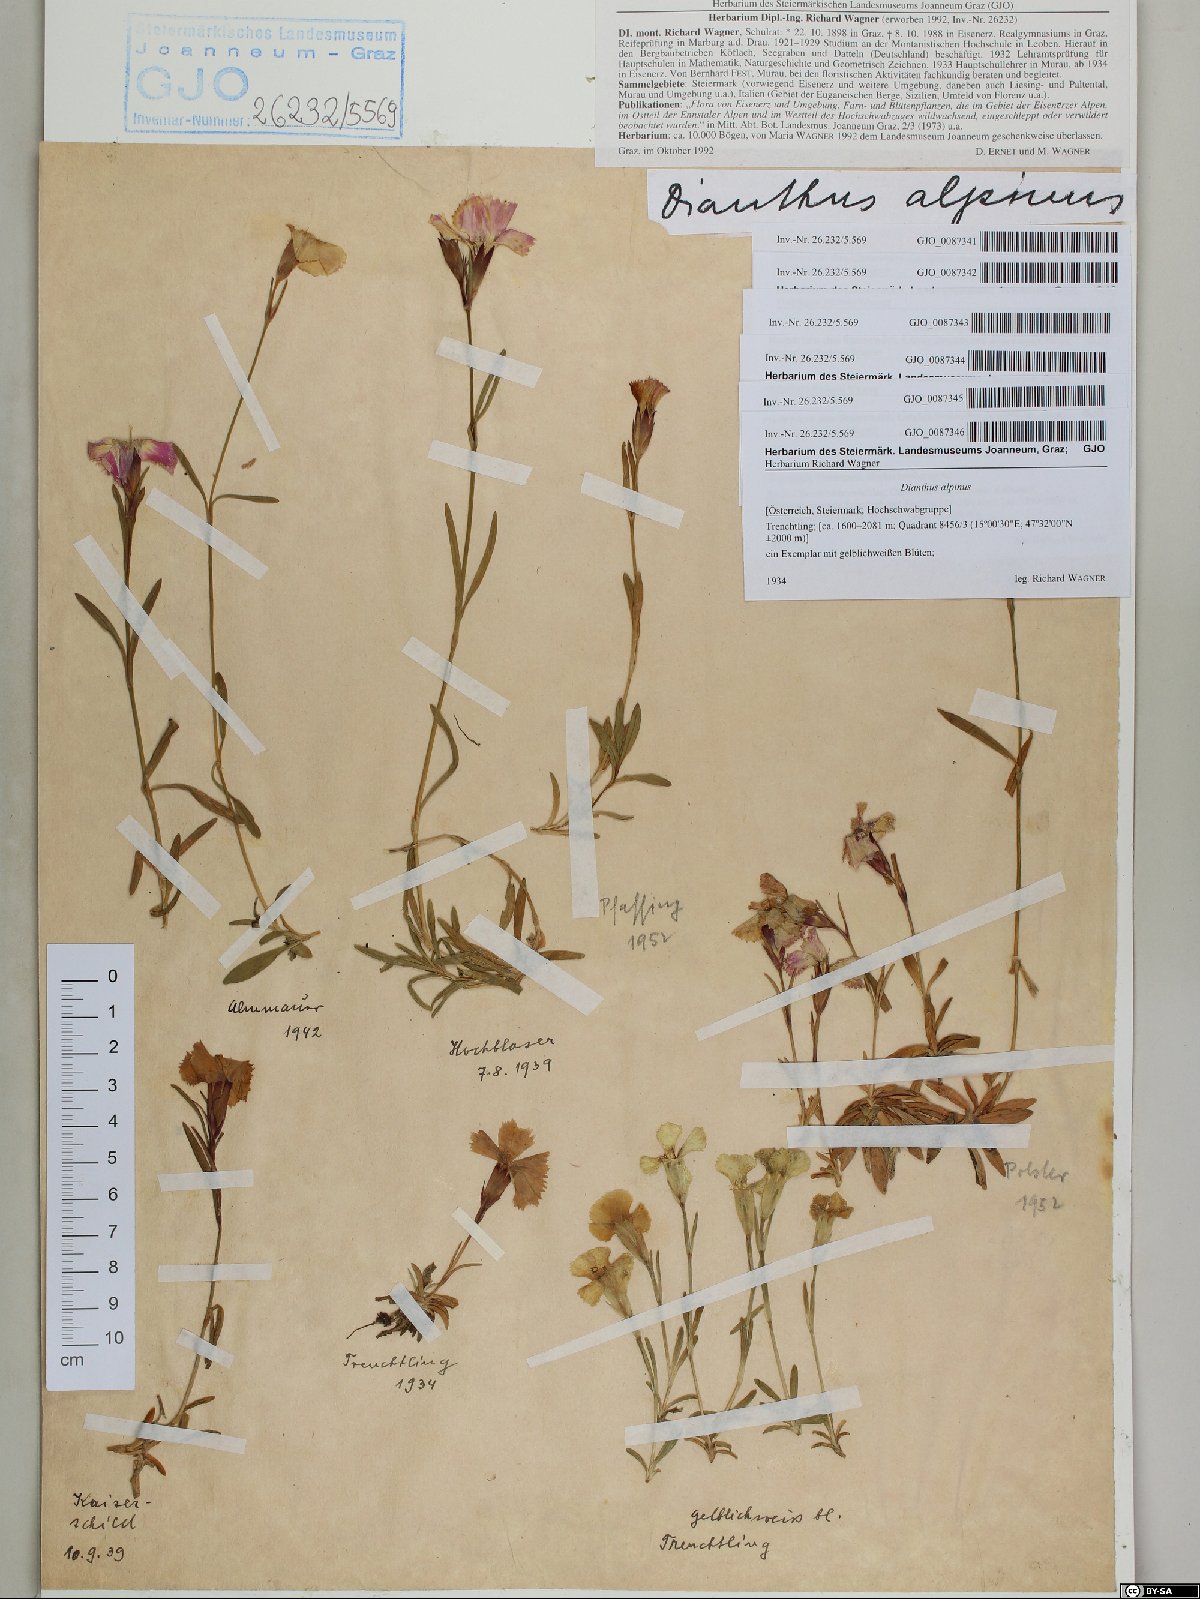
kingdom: Plantae
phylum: Tracheophyta
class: Magnoliopsida
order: Caryophyllales
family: Caryophyllaceae
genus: Dianthus
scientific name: Dianthus alpinus
